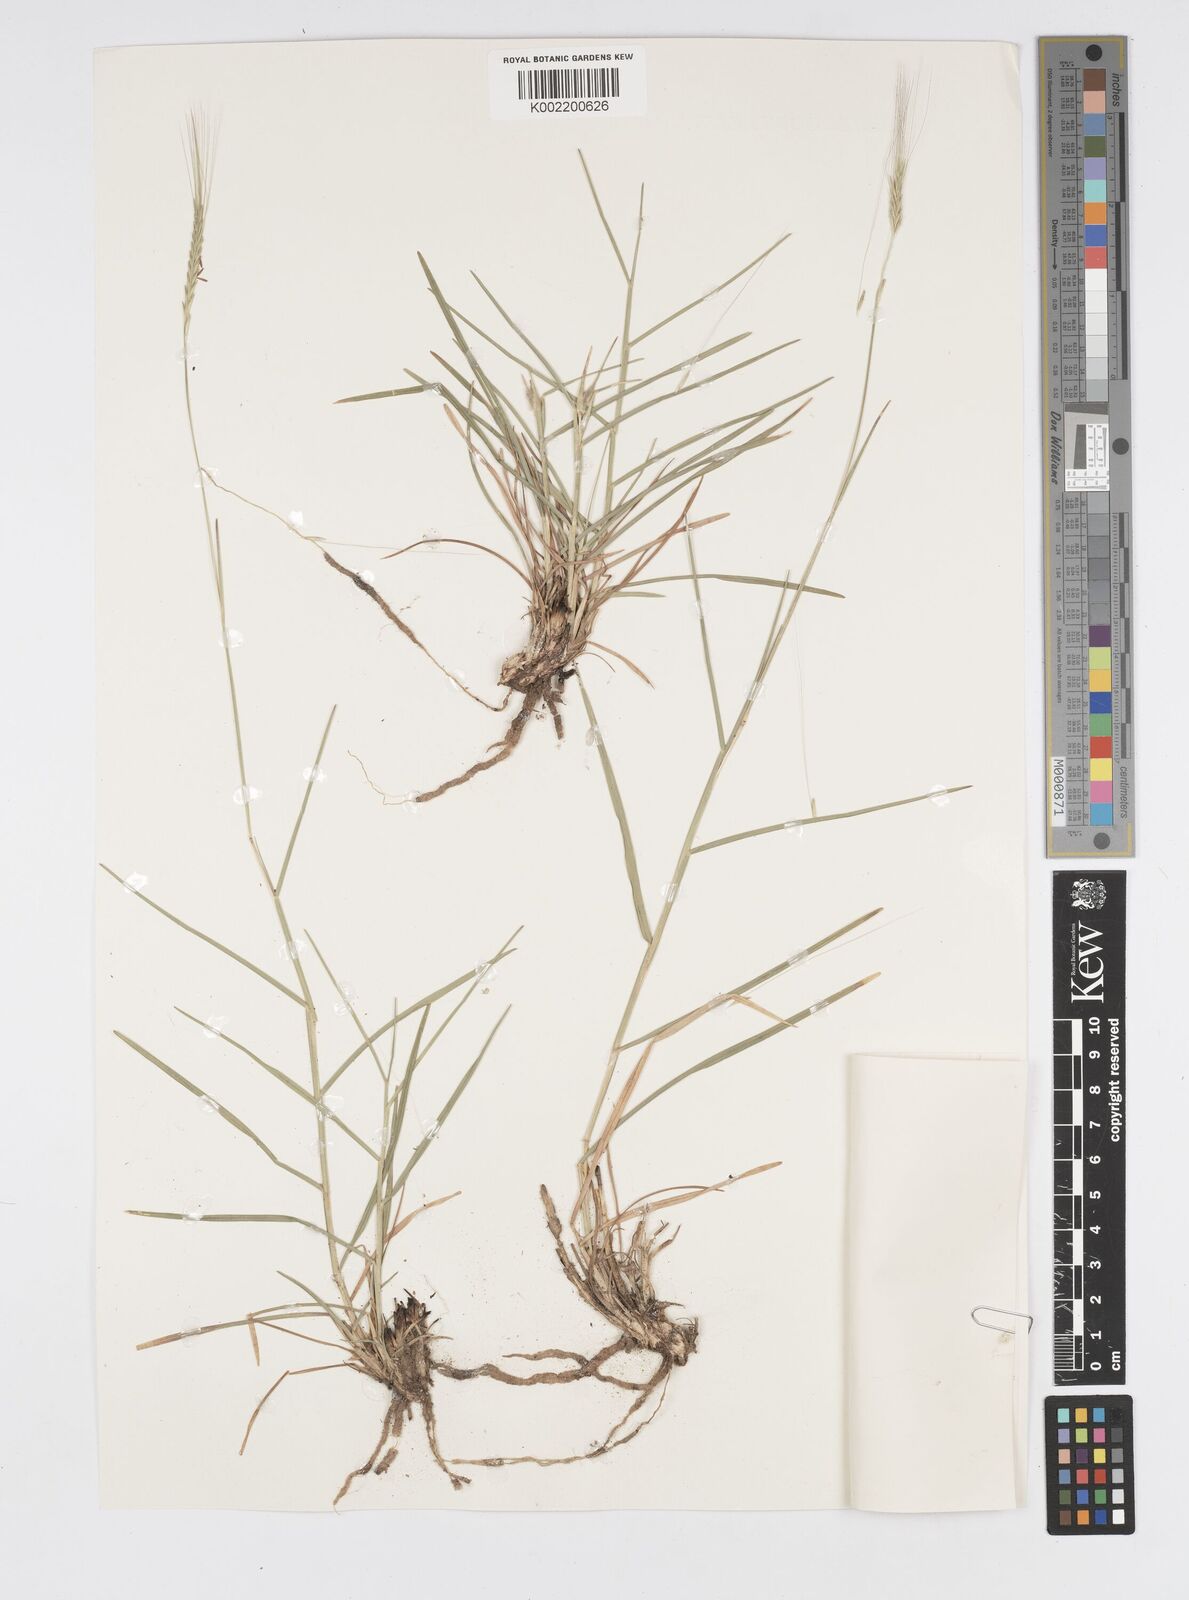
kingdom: Plantae
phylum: Tracheophyta
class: Liliopsida
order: Poales
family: Poaceae
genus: Chamaeraphis
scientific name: Chamaeraphis hordeacea
